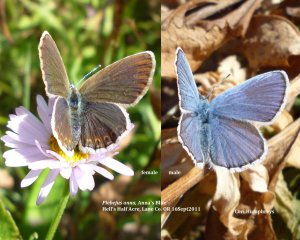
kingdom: Animalia
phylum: Arthropoda
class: Insecta
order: Lepidoptera
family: Lycaenidae
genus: Lycaeides
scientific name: Lycaeides anna
